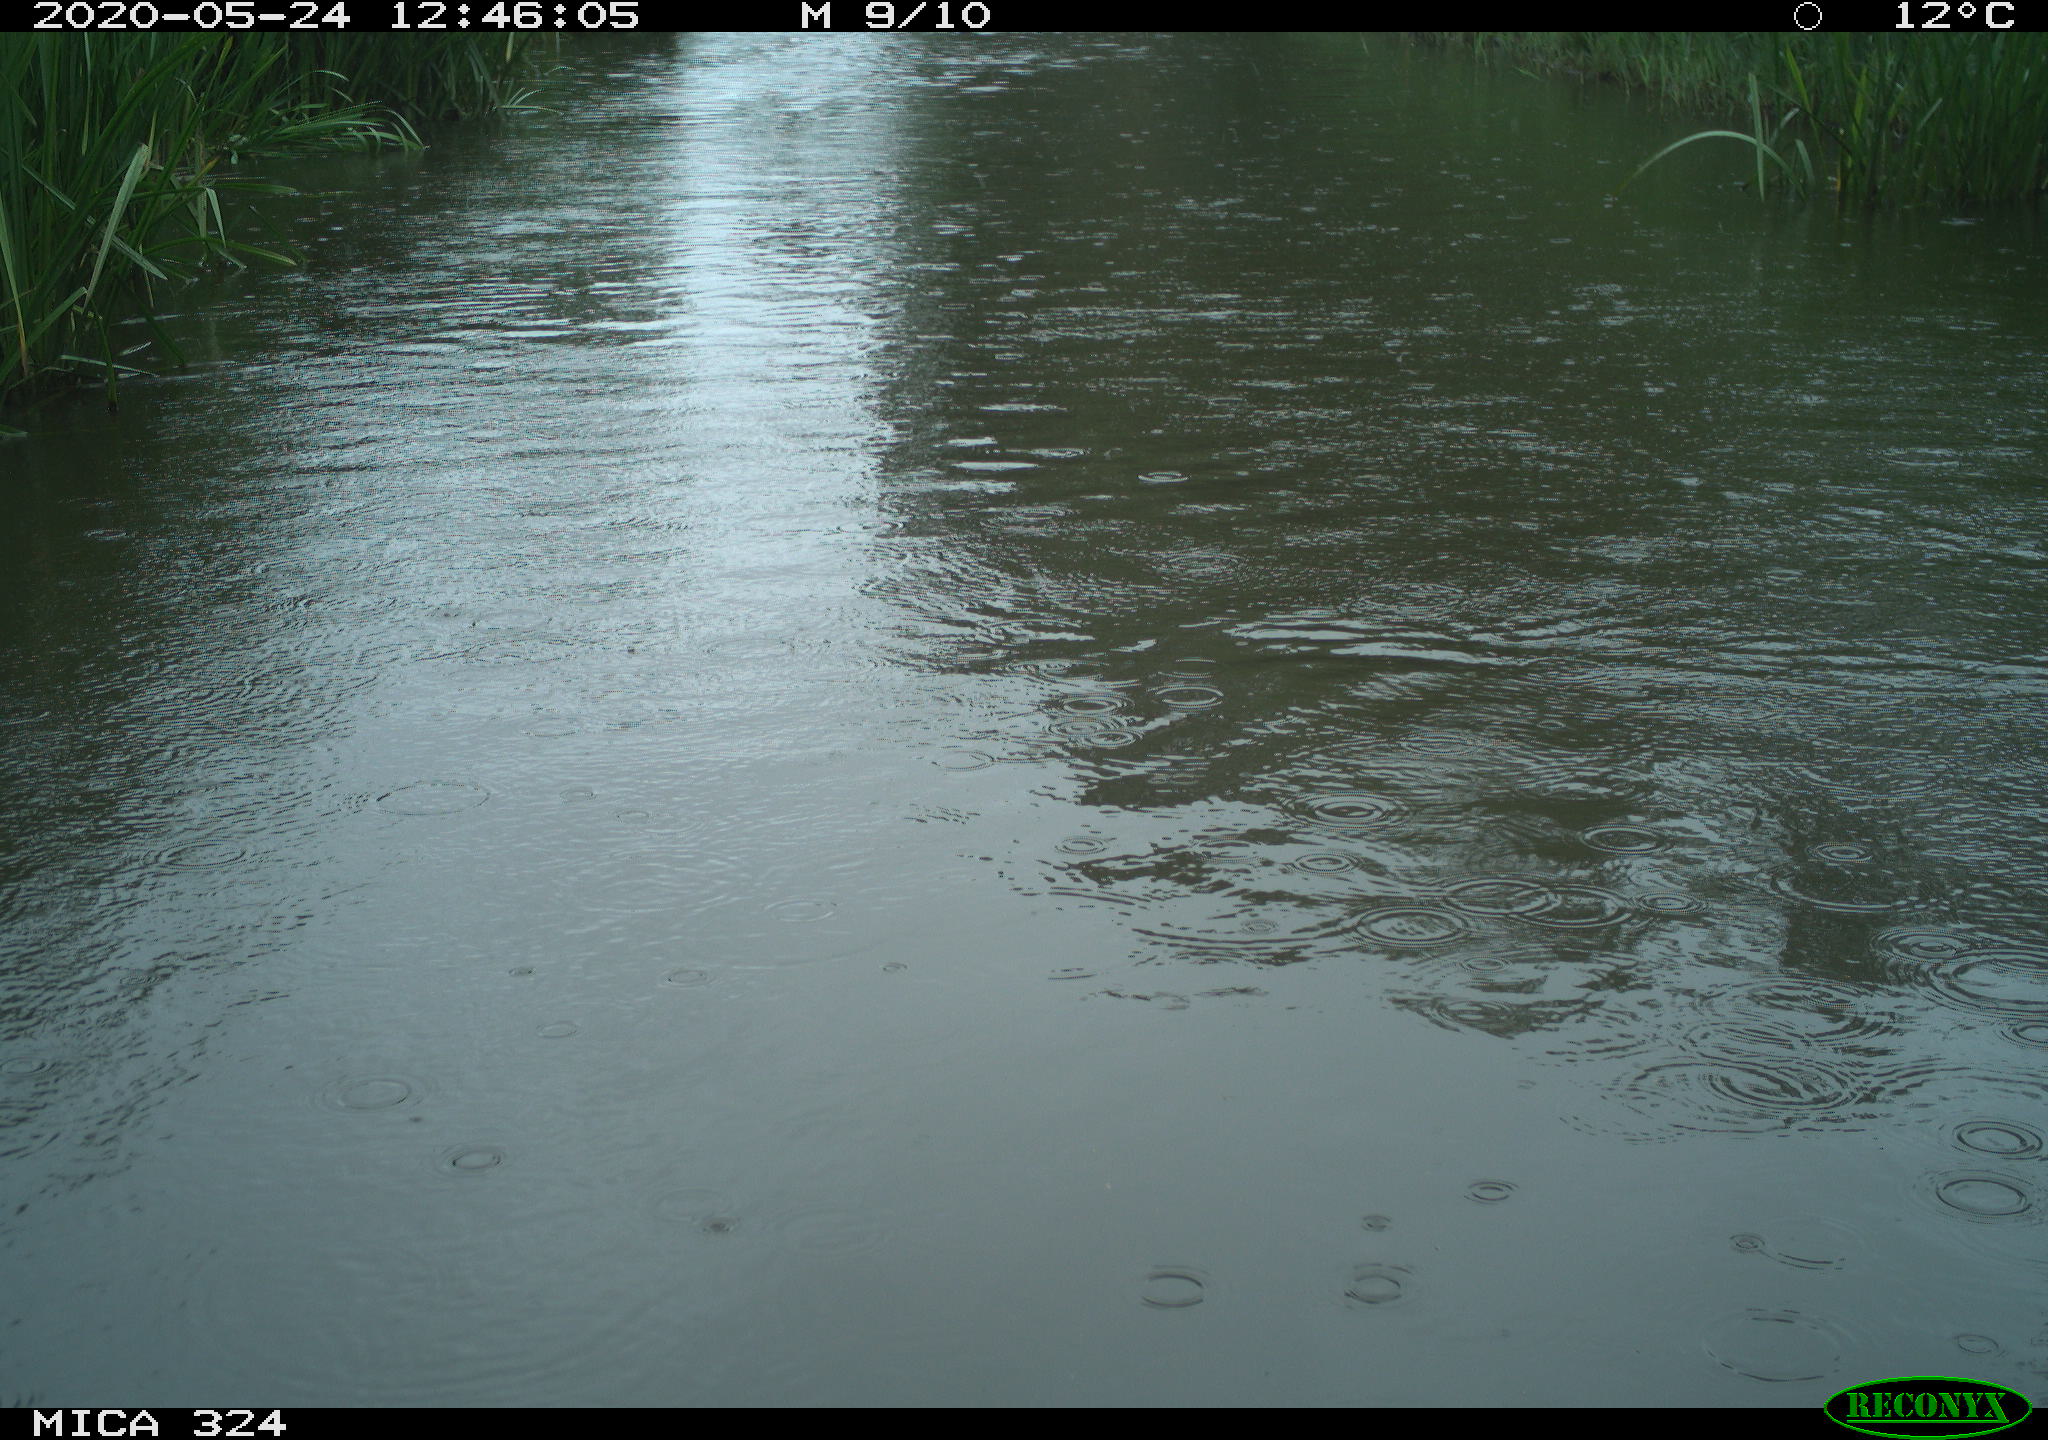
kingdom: Animalia
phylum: Chordata
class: Aves
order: Gruiformes
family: Rallidae
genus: Gallinula
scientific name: Gallinula chloropus
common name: Common moorhen
